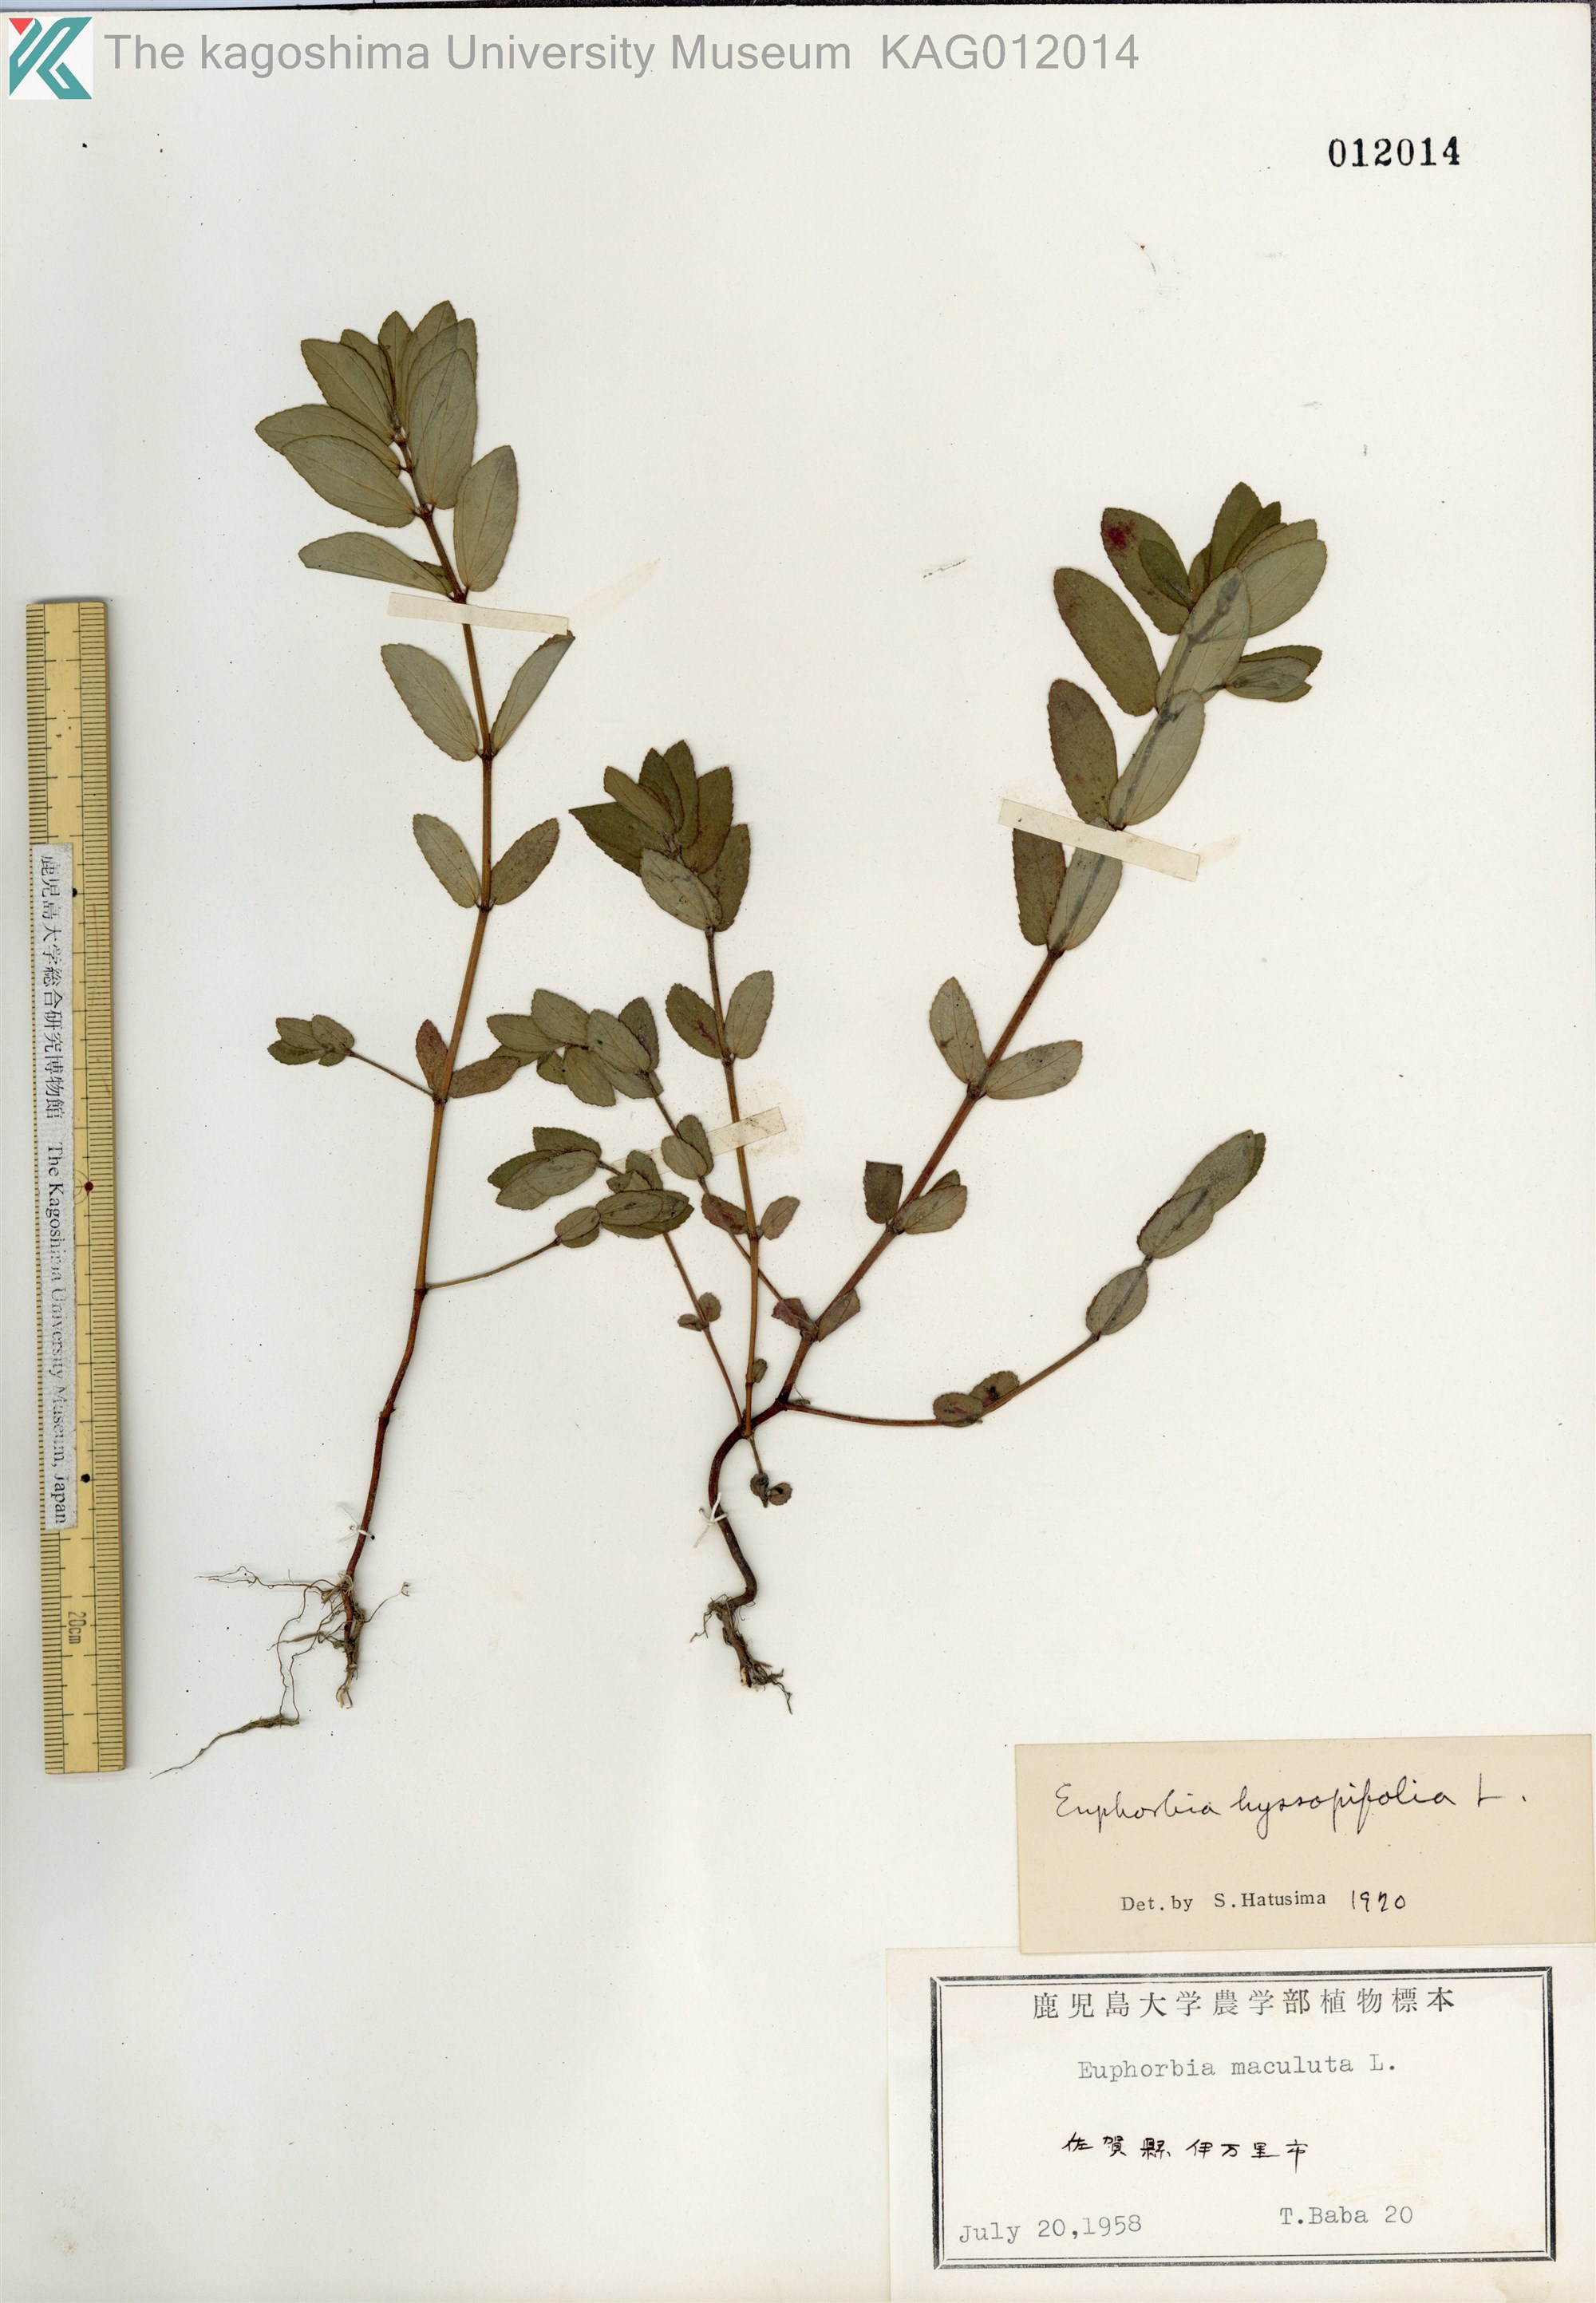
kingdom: Plantae
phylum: Tracheophyta
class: Magnoliopsida
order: Malpighiales
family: Euphorbiaceae
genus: Euphorbia
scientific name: Euphorbia hyssopifolia
